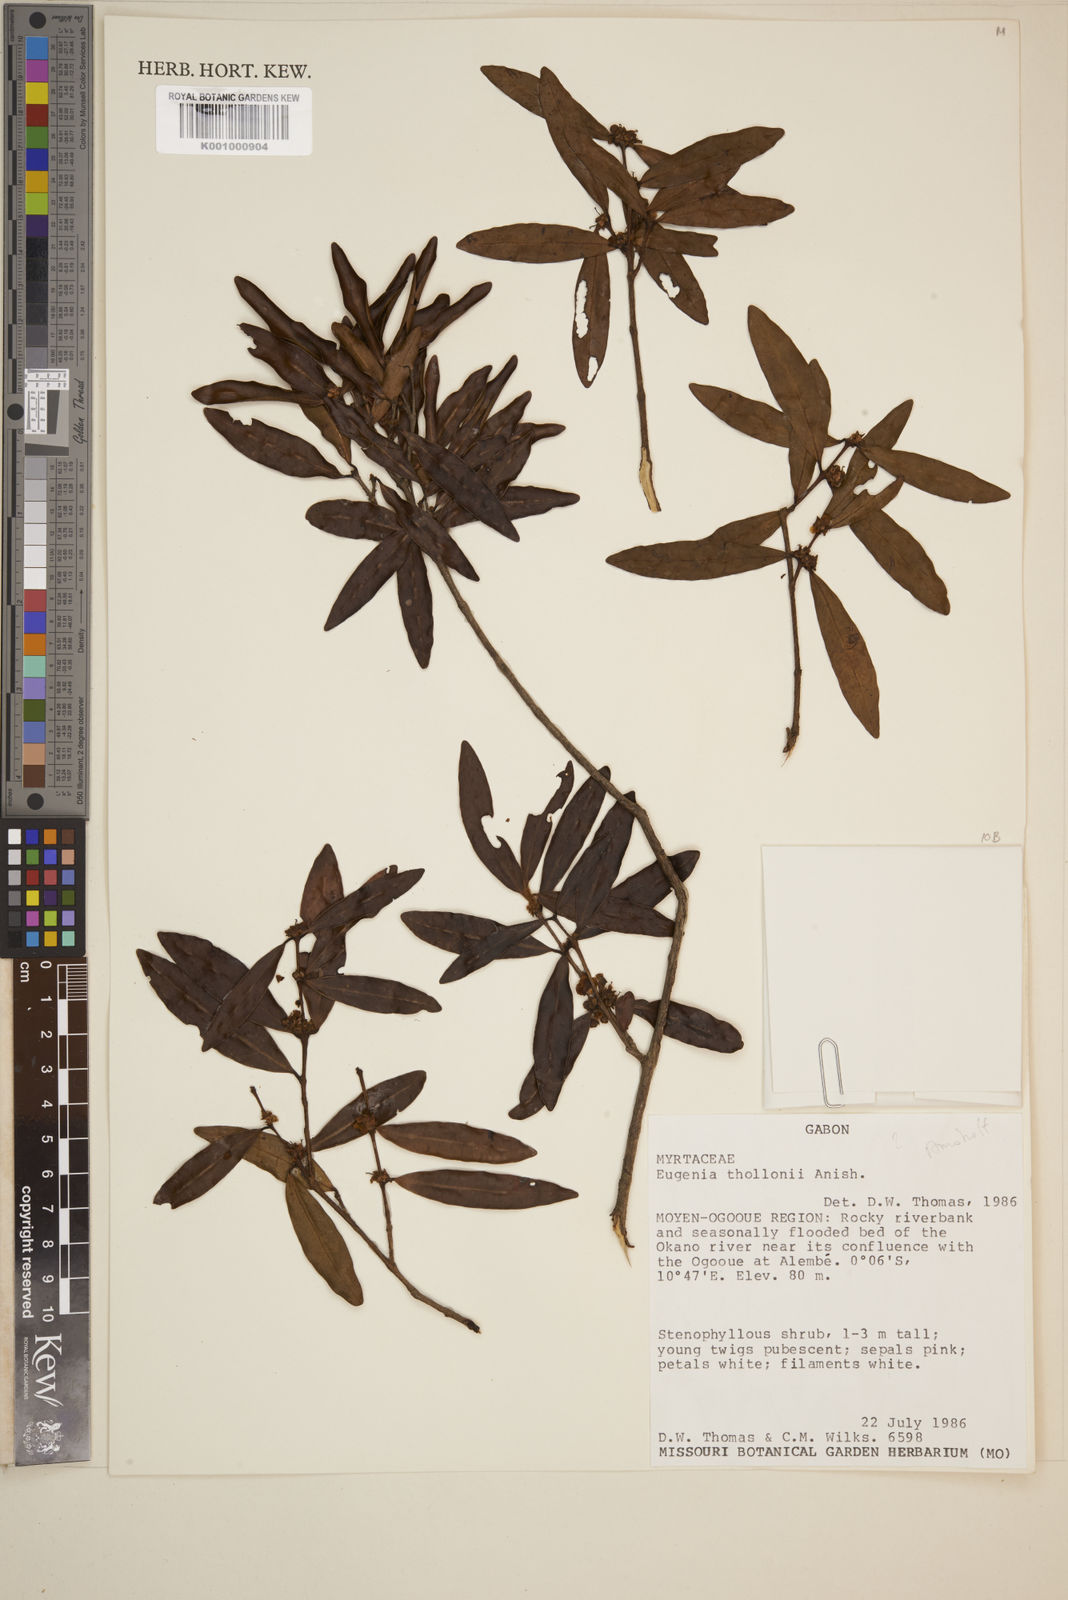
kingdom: Plantae
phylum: Tracheophyta
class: Magnoliopsida
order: Myrtales
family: Myrtaceae
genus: Eugenia
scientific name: Eugenia thollonii
